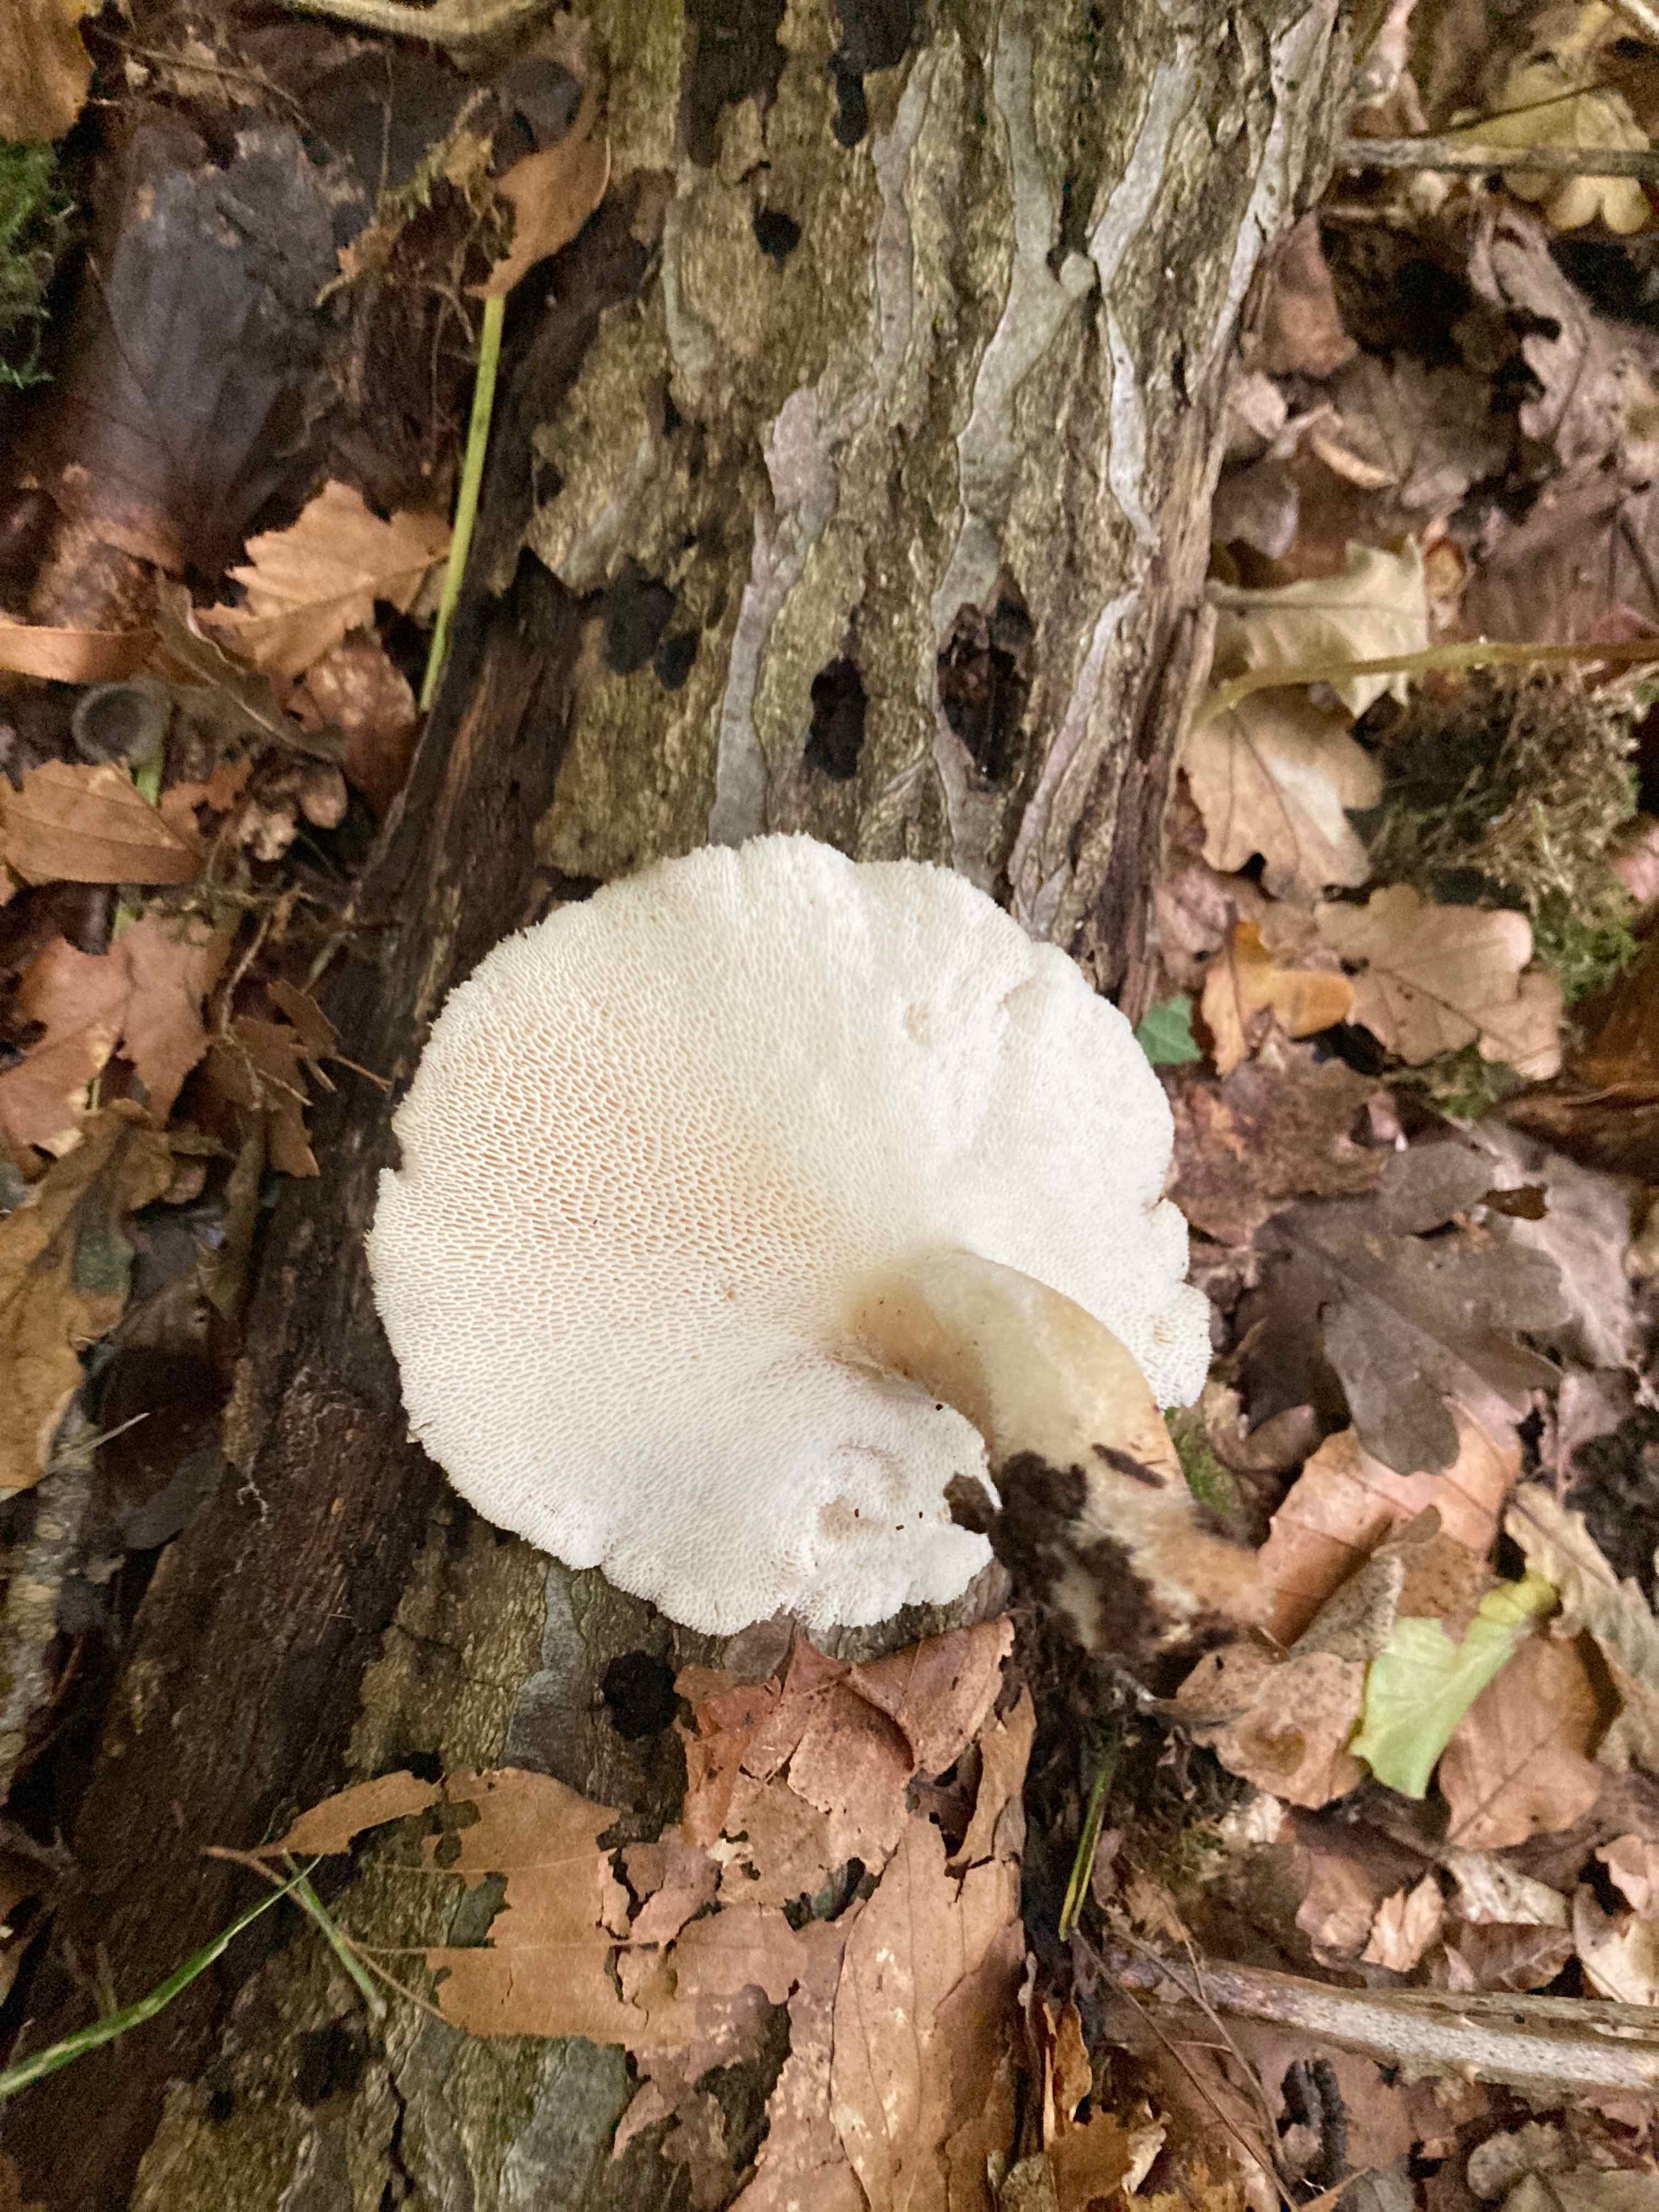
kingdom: Fungi
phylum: Basidiomycota
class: Agaricomycetes
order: Polyporales
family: Polyporaceae
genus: Polyporus
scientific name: Polyporus tuberaster
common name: knoldet stilkporesvamp
